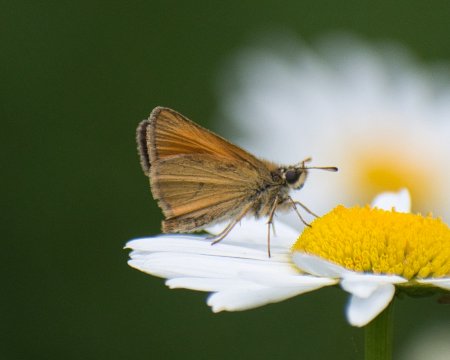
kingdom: Animalia
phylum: Arthropoda
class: Insecta
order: Lepidoptera
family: Hesperiidae
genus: Thymelicus
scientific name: Thymelicus lineola
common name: European Skipper
